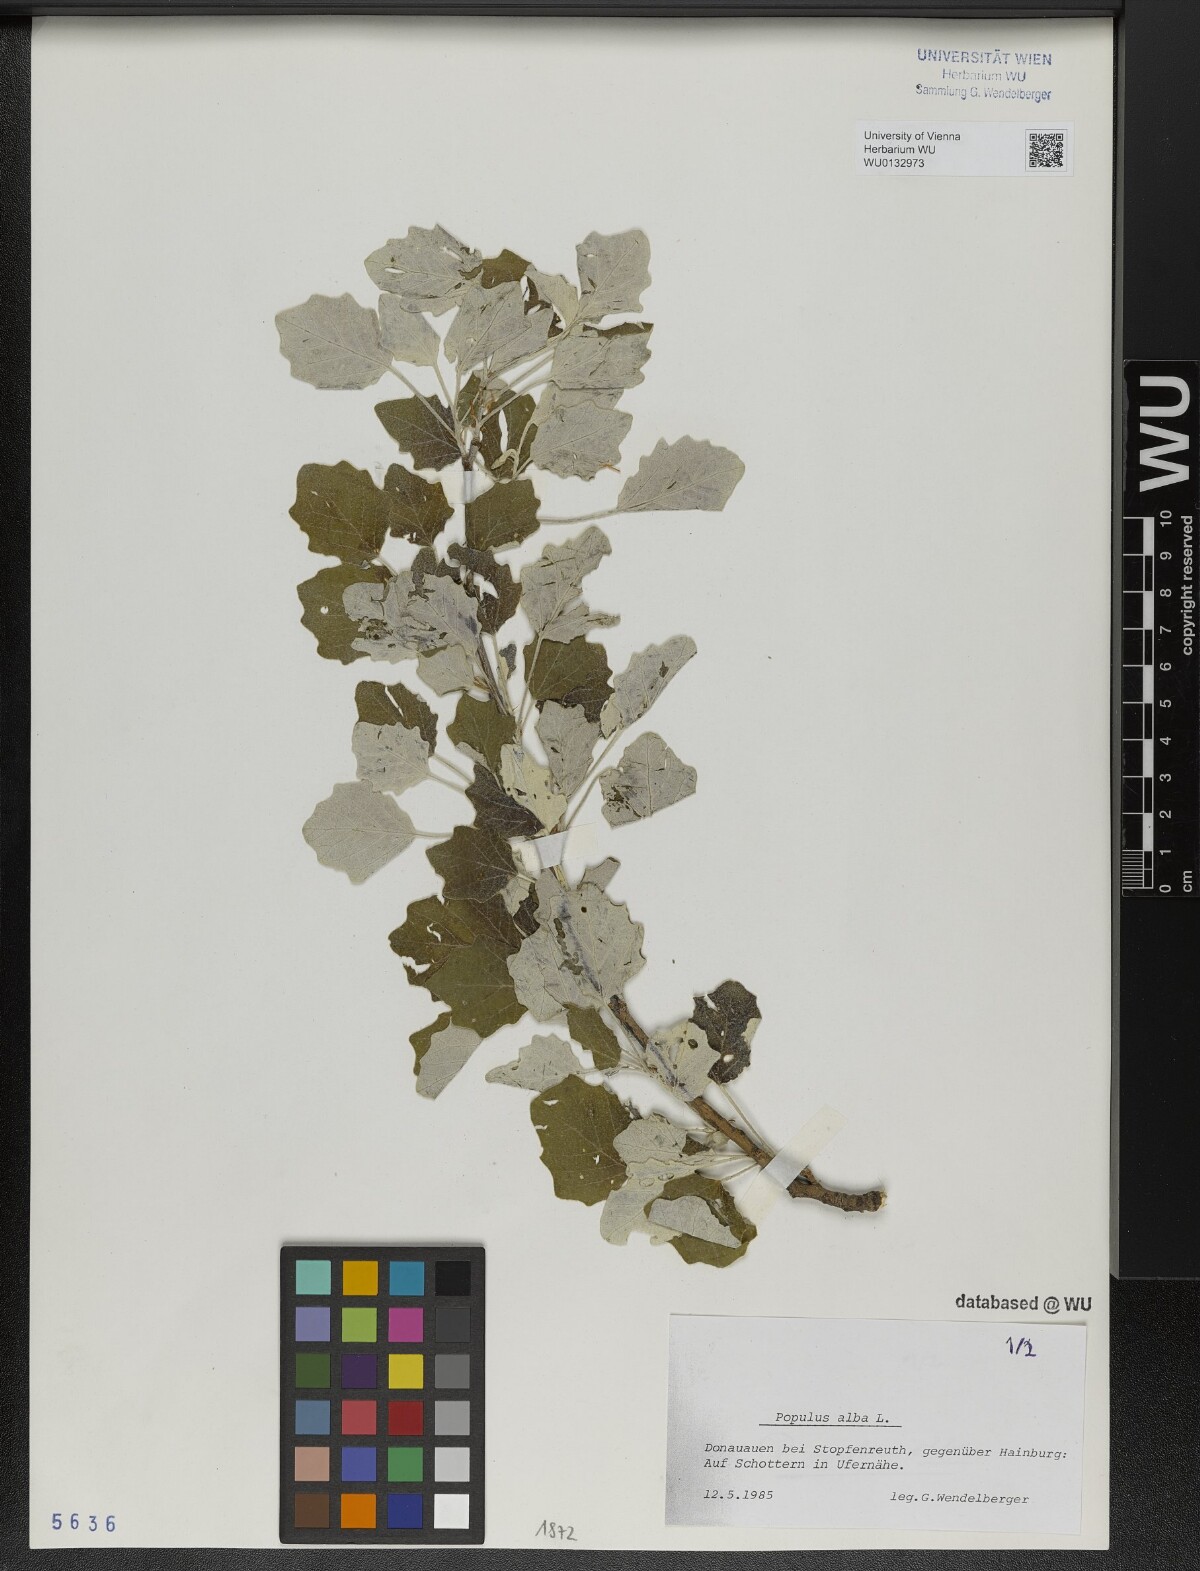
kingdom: Plantae
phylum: Tracheophyta
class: Magnoliopsida
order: Malpighiales
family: Salicaceae
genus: Populus
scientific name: Populus alba
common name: White poplar
